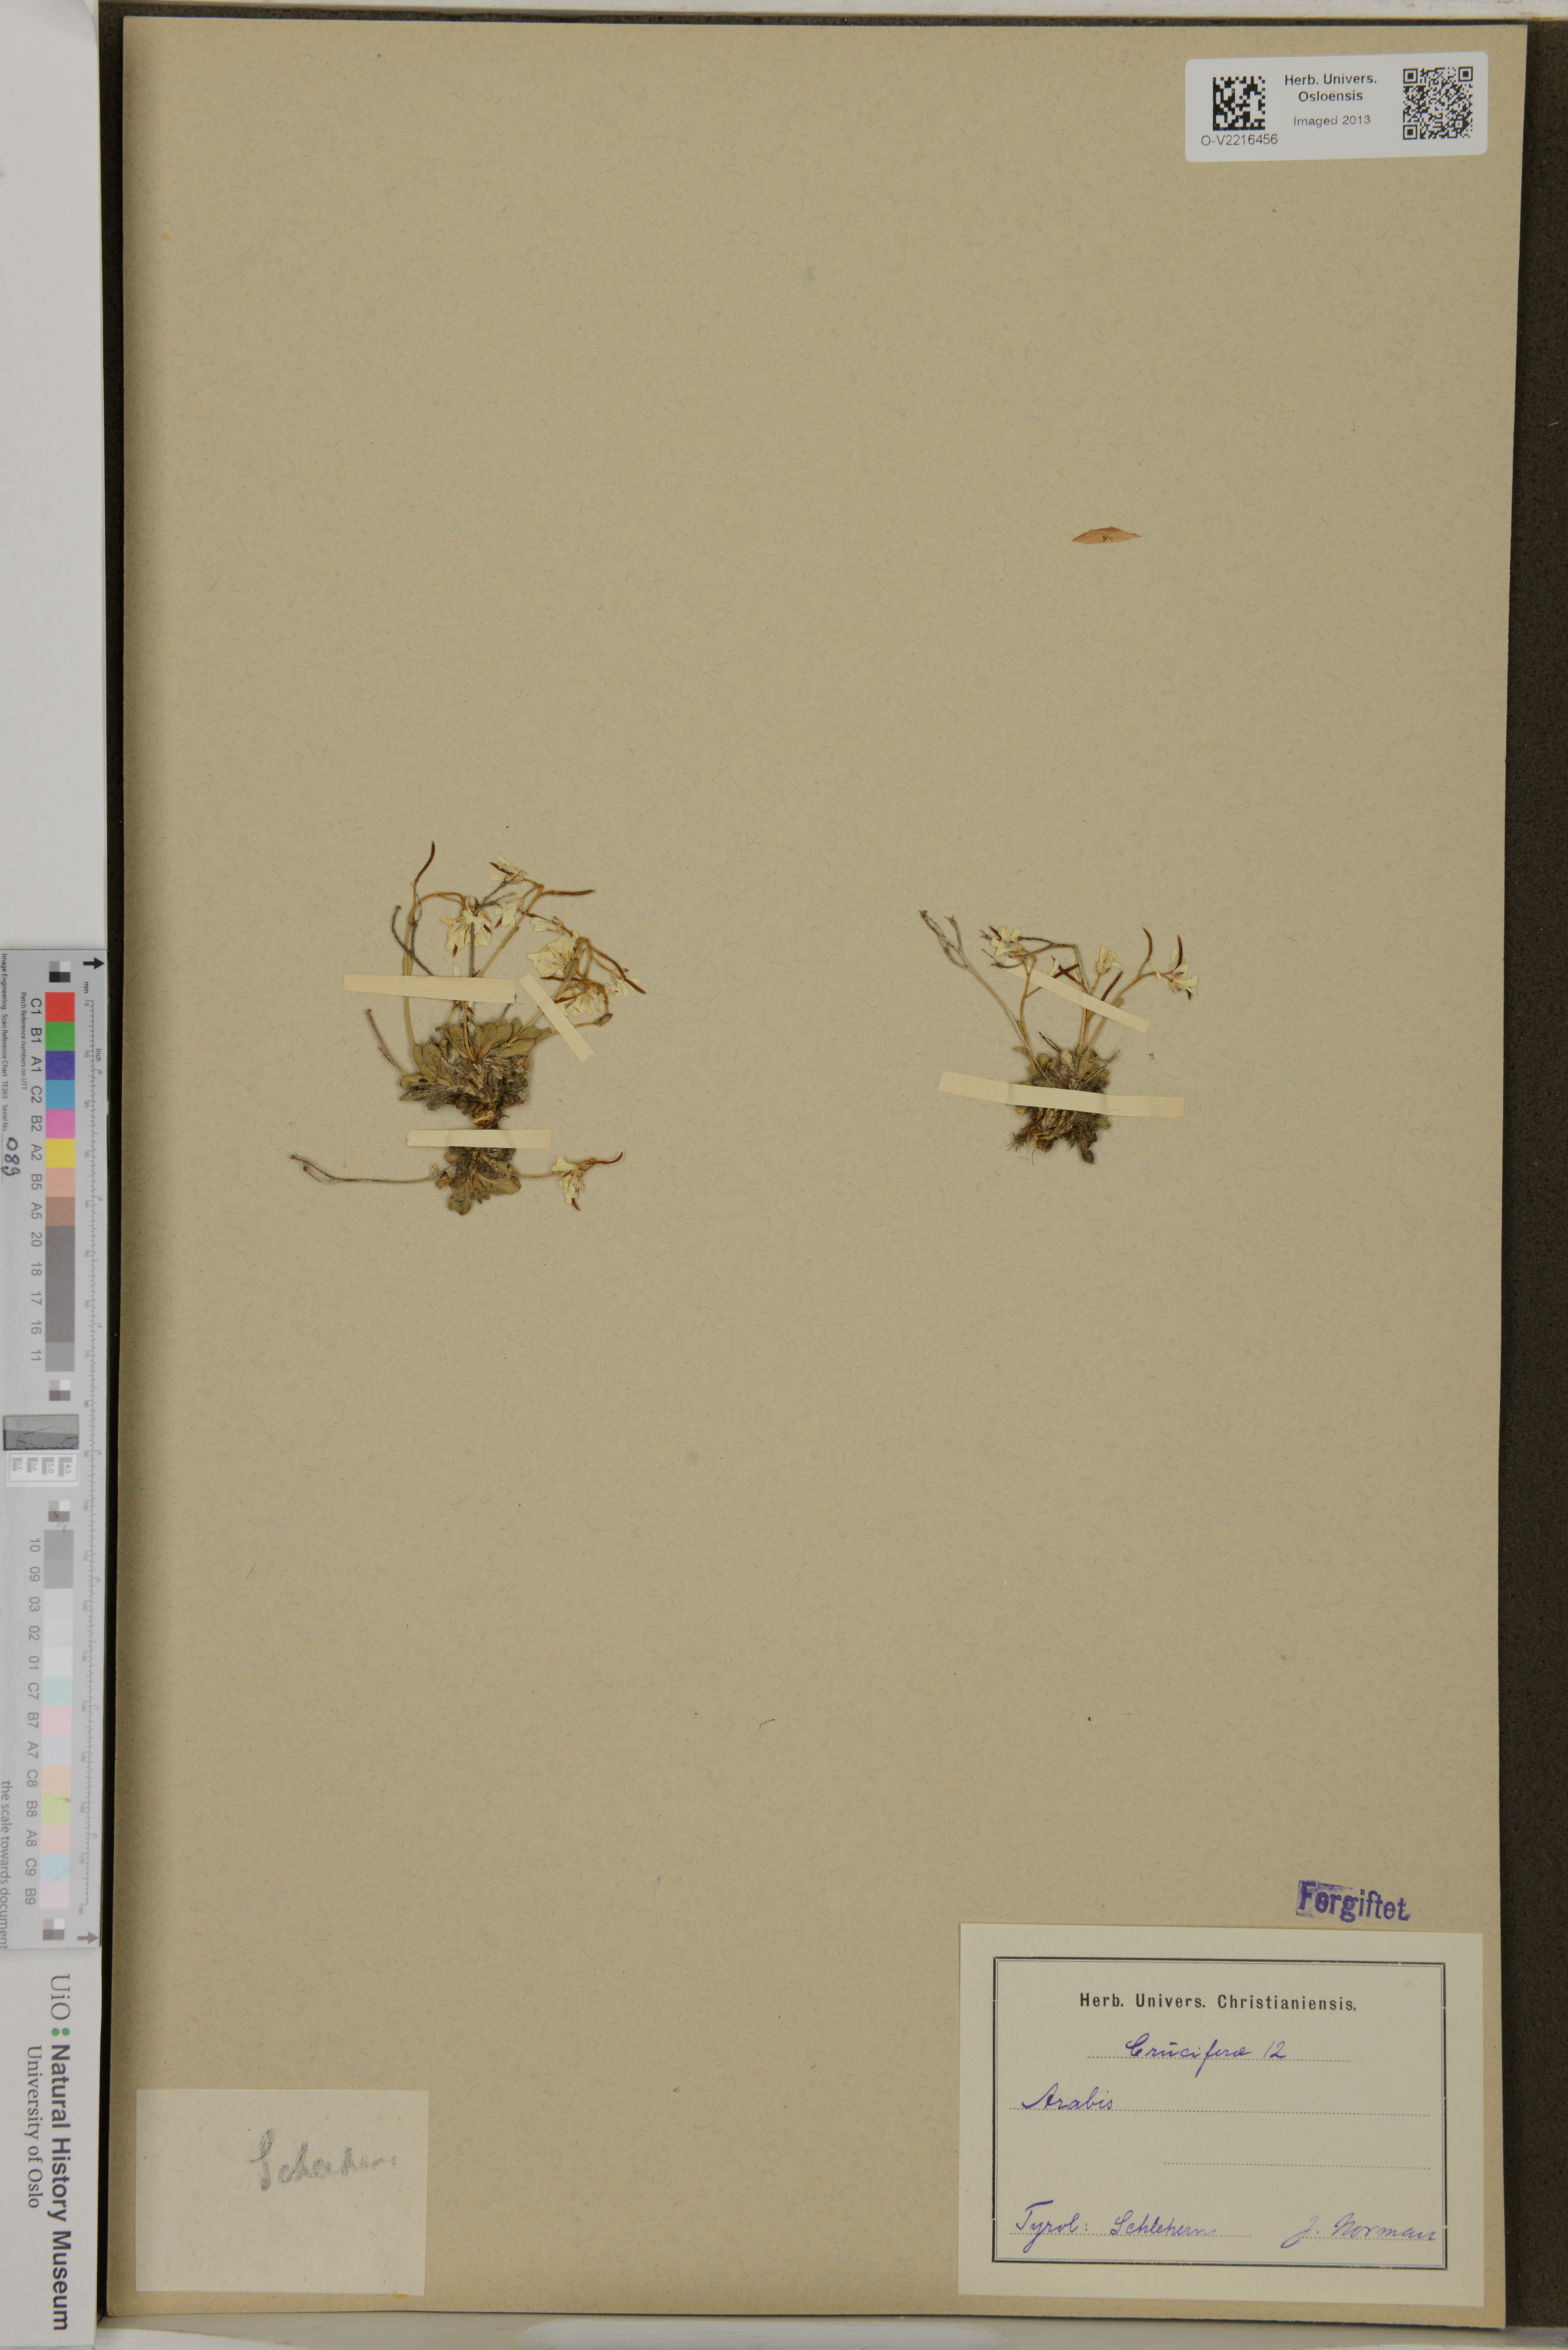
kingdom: Plantae
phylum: Tracheophyta
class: Magnoliopsida
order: Brassicales
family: Brassicaceae
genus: Arabis
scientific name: Arabis
